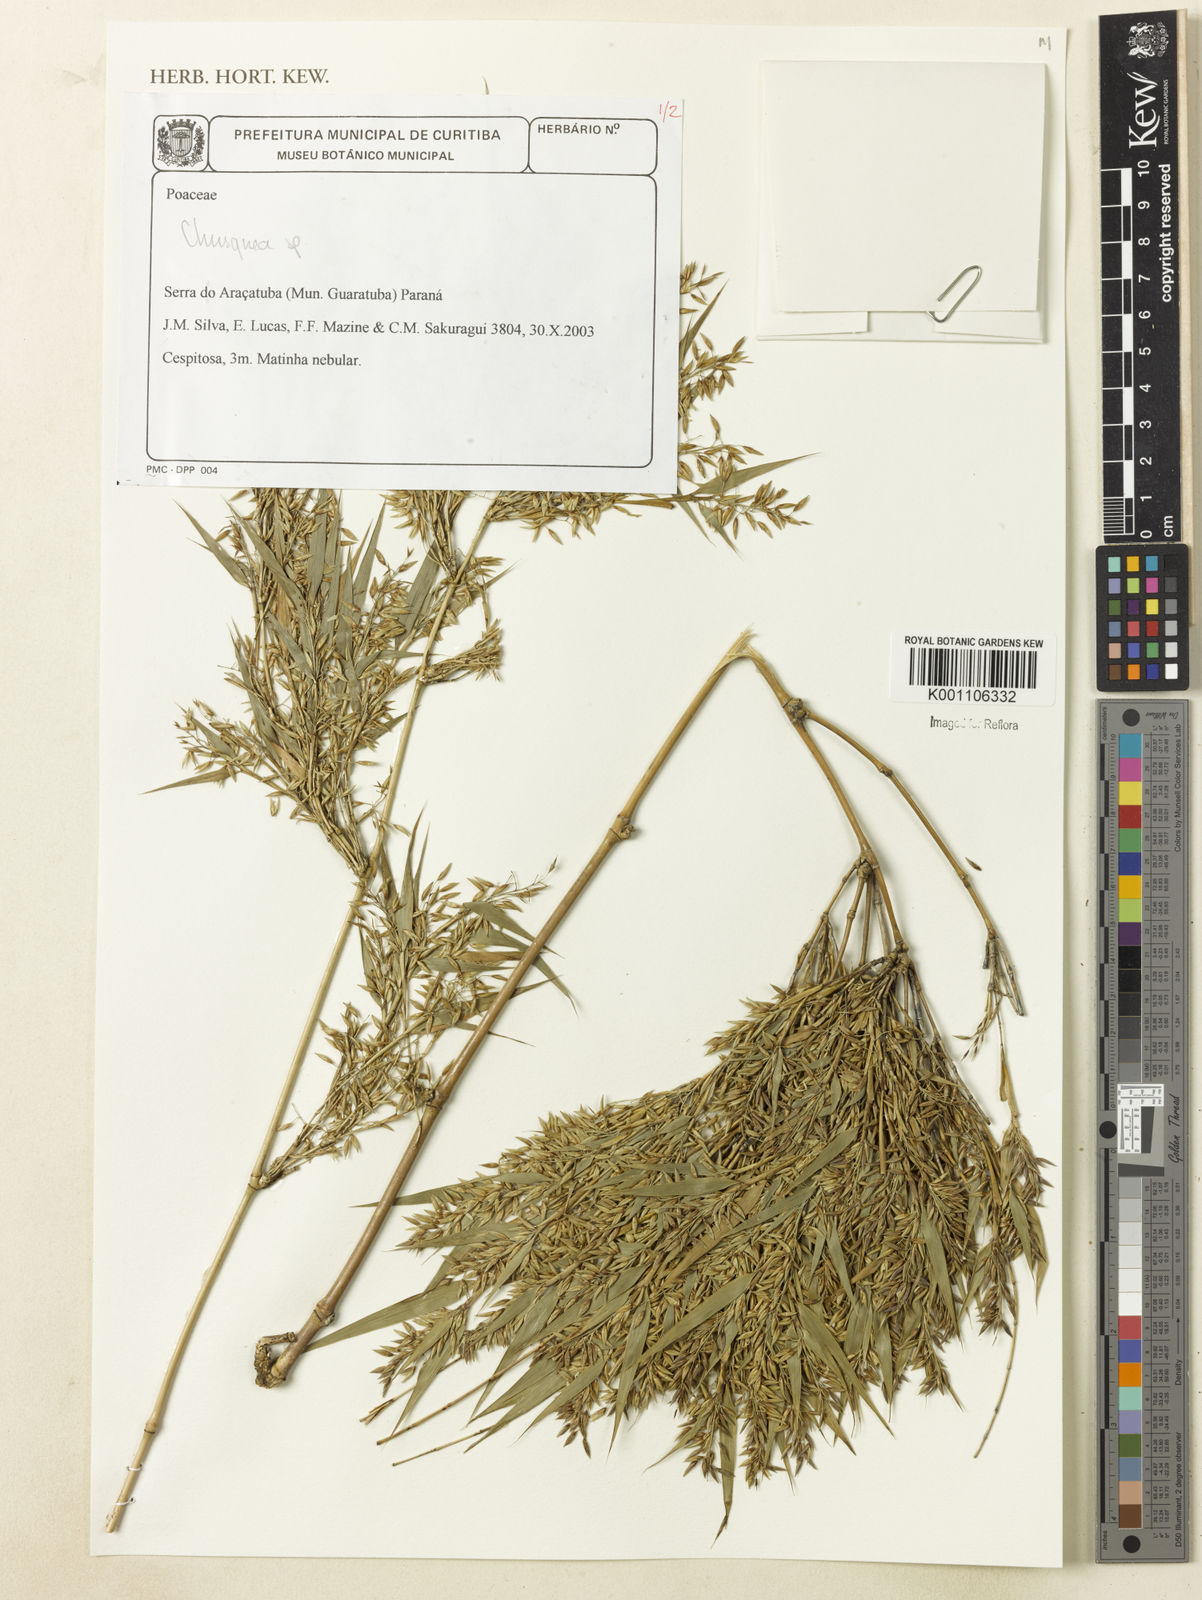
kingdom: Plantae
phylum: Tracheophyta
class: Liliopsida
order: Poales
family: Poaceae
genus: Chusquea
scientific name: Chusquea
